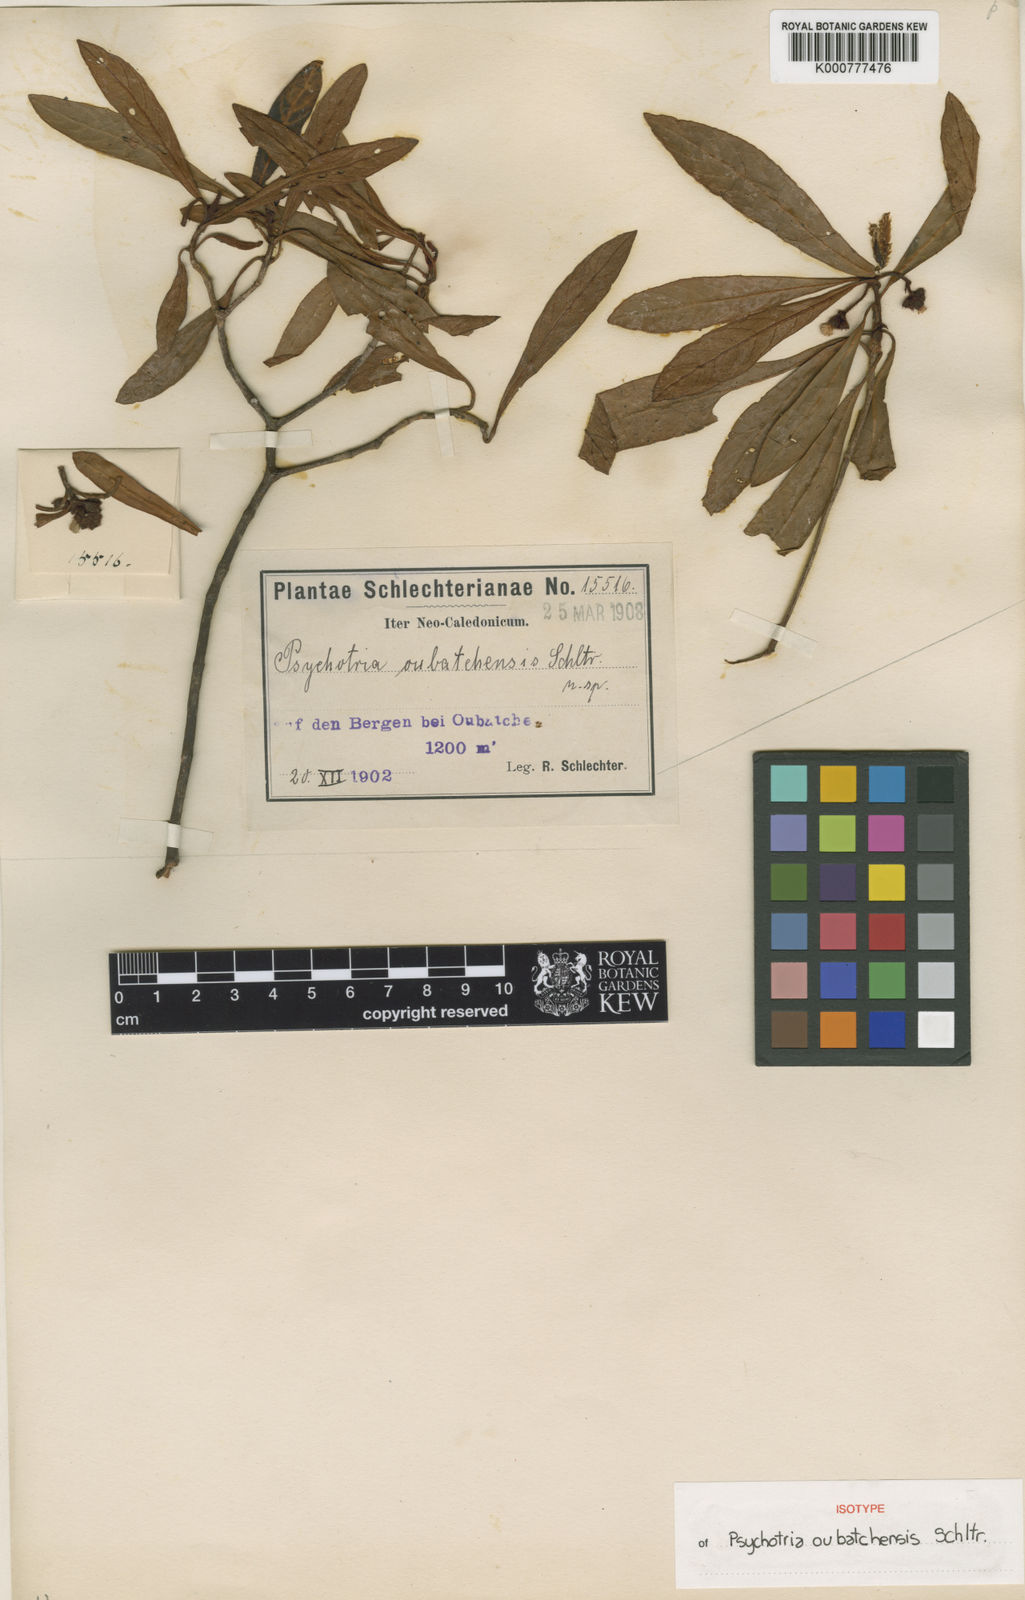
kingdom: Plantae
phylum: Tracheophyta
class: Magnoliopsida
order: Gentianales
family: Rubiaceae
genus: Psychotria
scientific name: Psychotria oubatchensis
